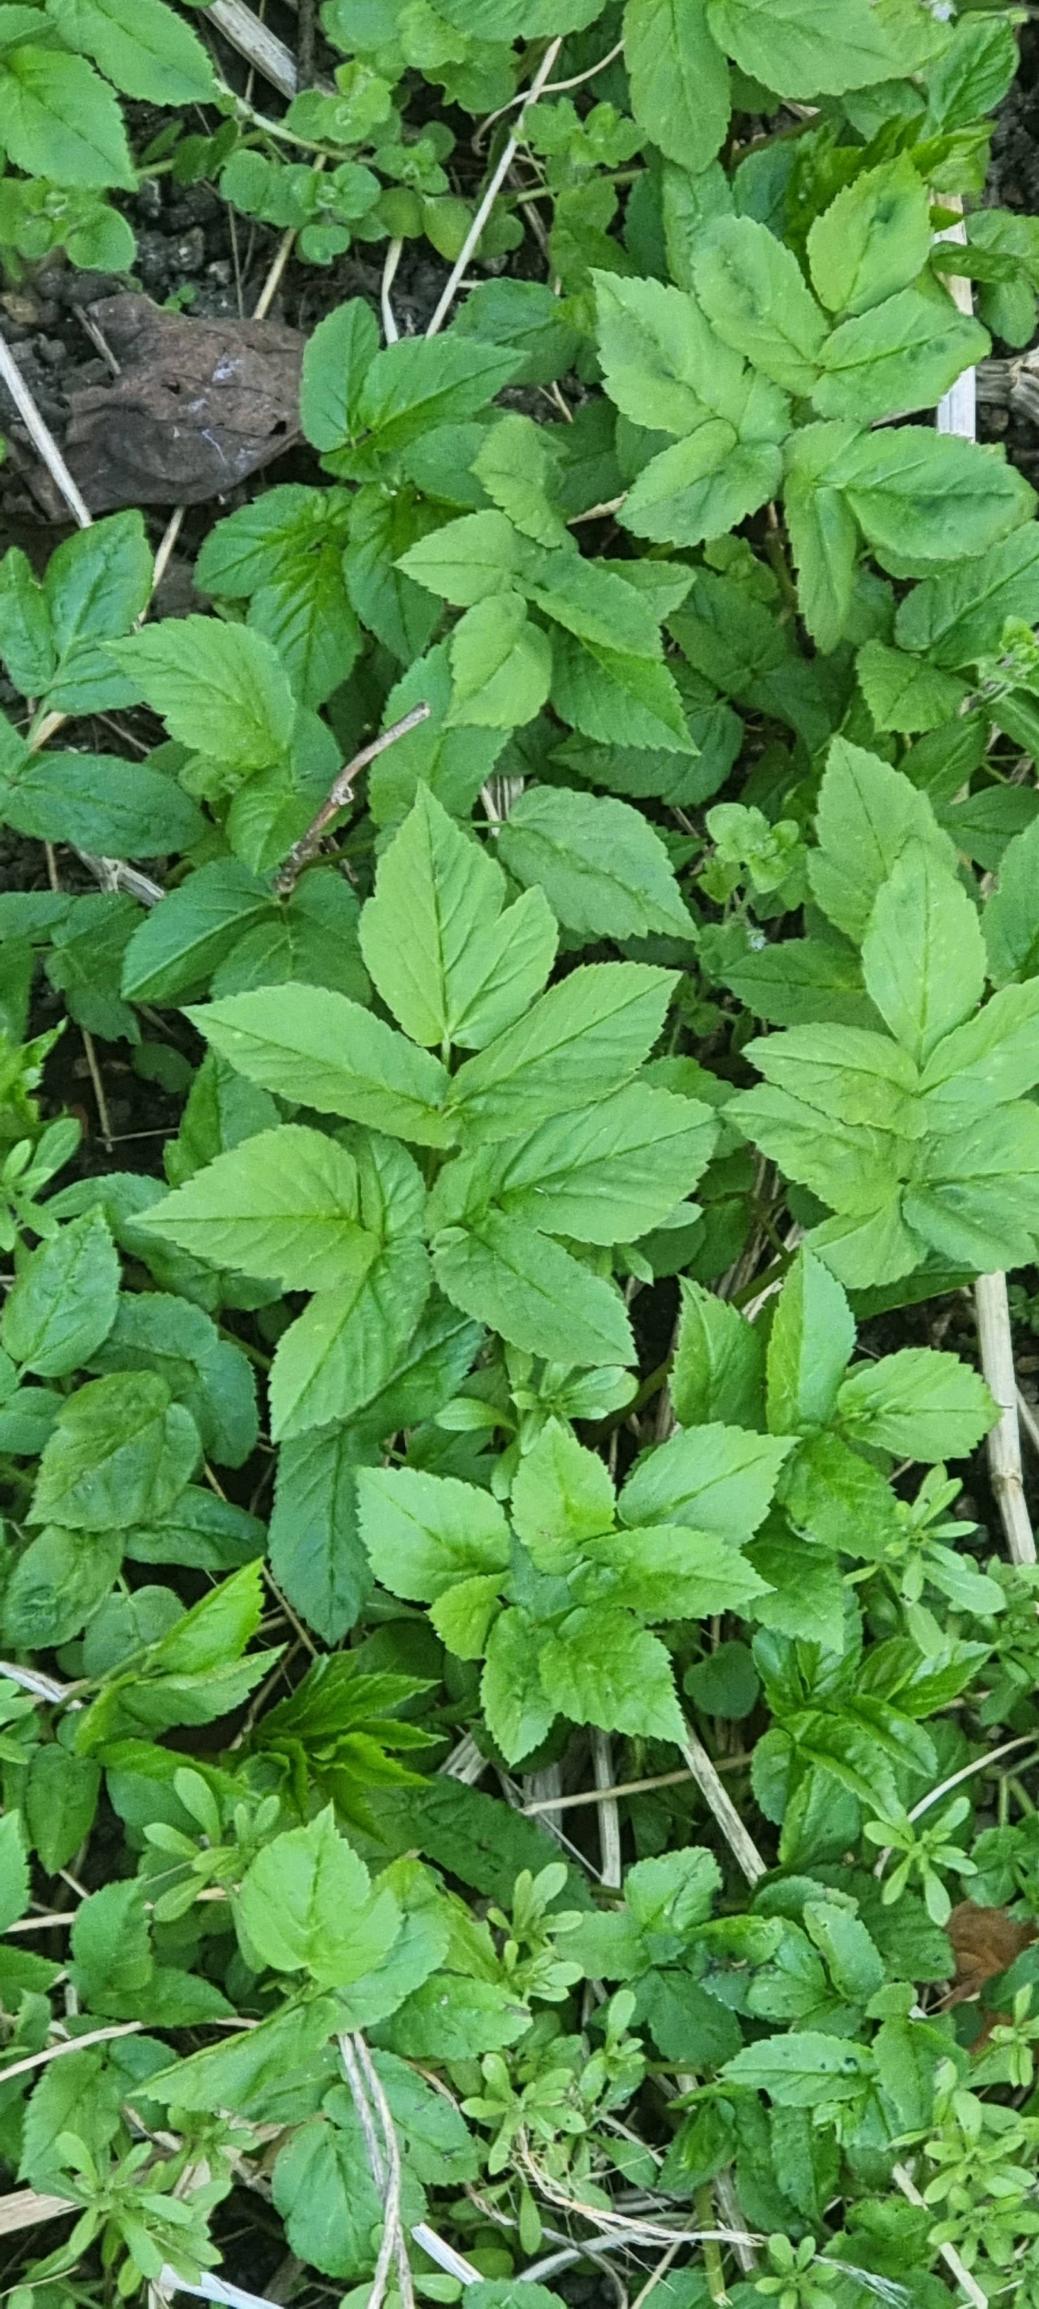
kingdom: Plantae
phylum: Tracheophyta
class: Magnoliopsida
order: Apiales
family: Apiaceae
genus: Aegopodium
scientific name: Aegopodium podagraria
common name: Skvalderkål
